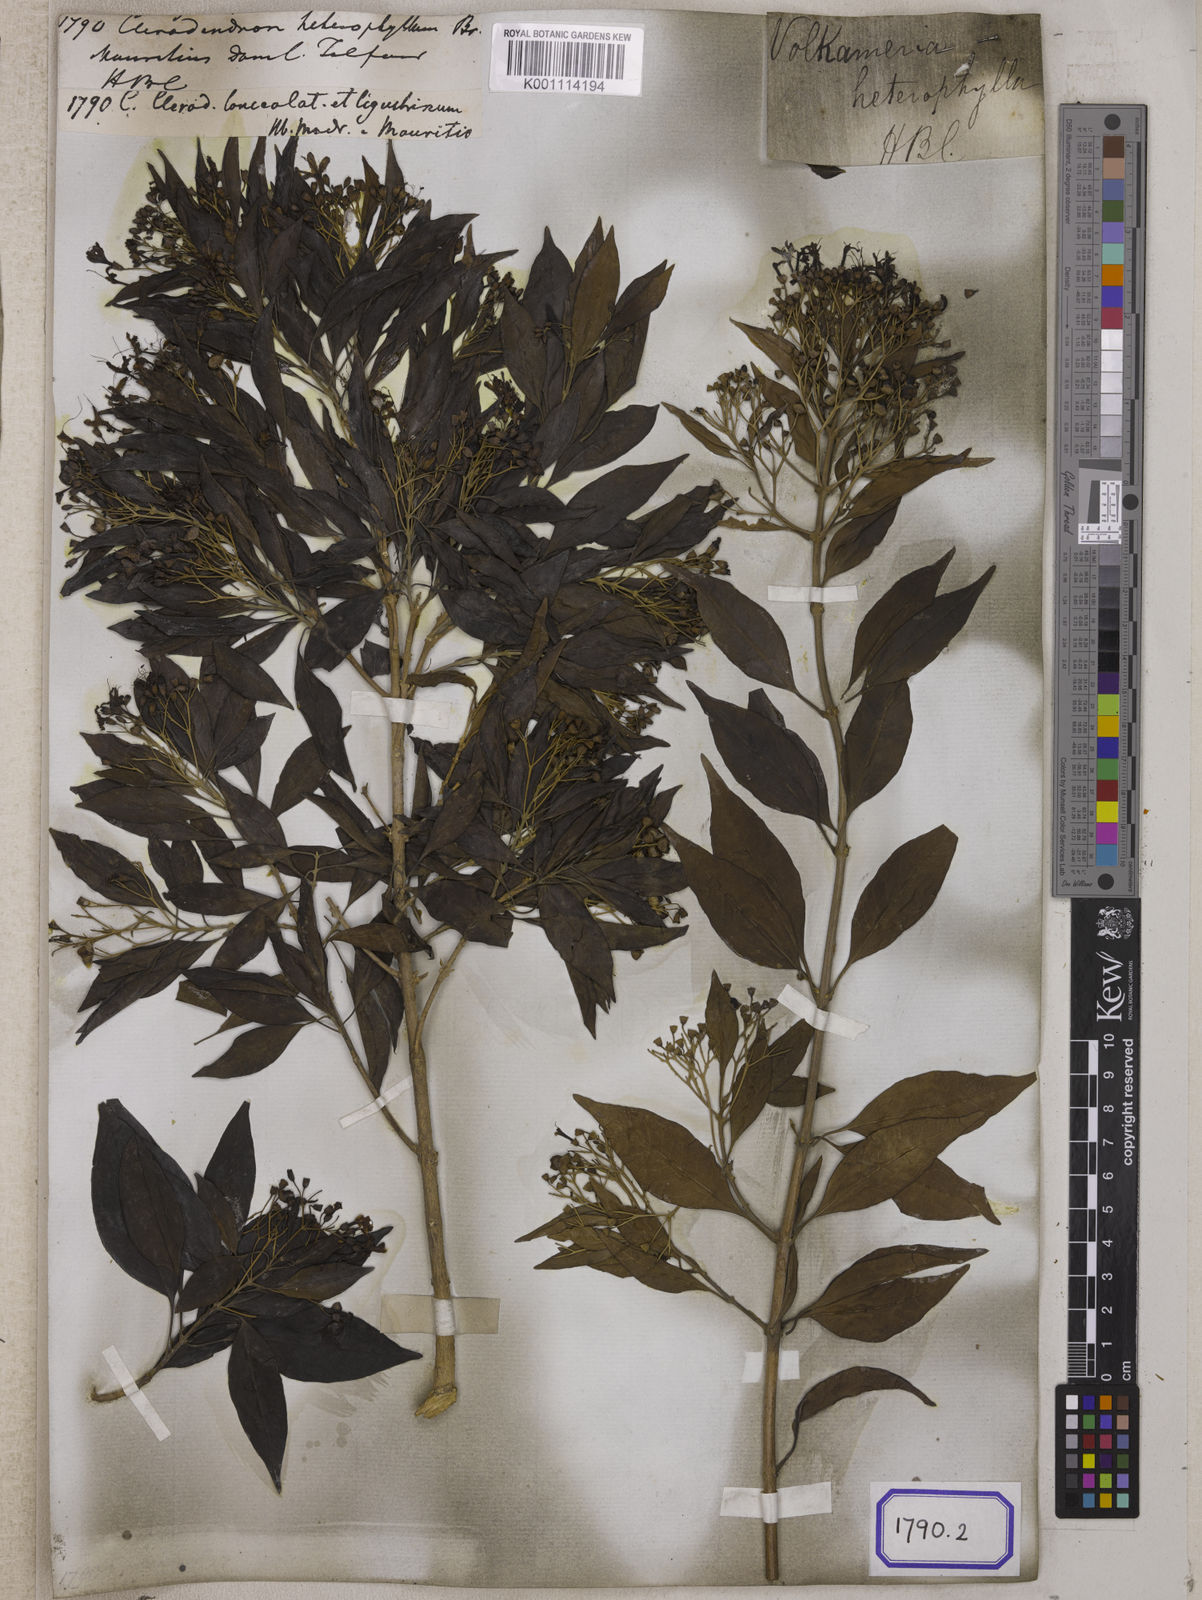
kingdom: Plantae
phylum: Tracheophyta
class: Magnoliopsida
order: Lamiales
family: Lamiaceae
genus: Volkameria
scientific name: Volkameria heterophylla
